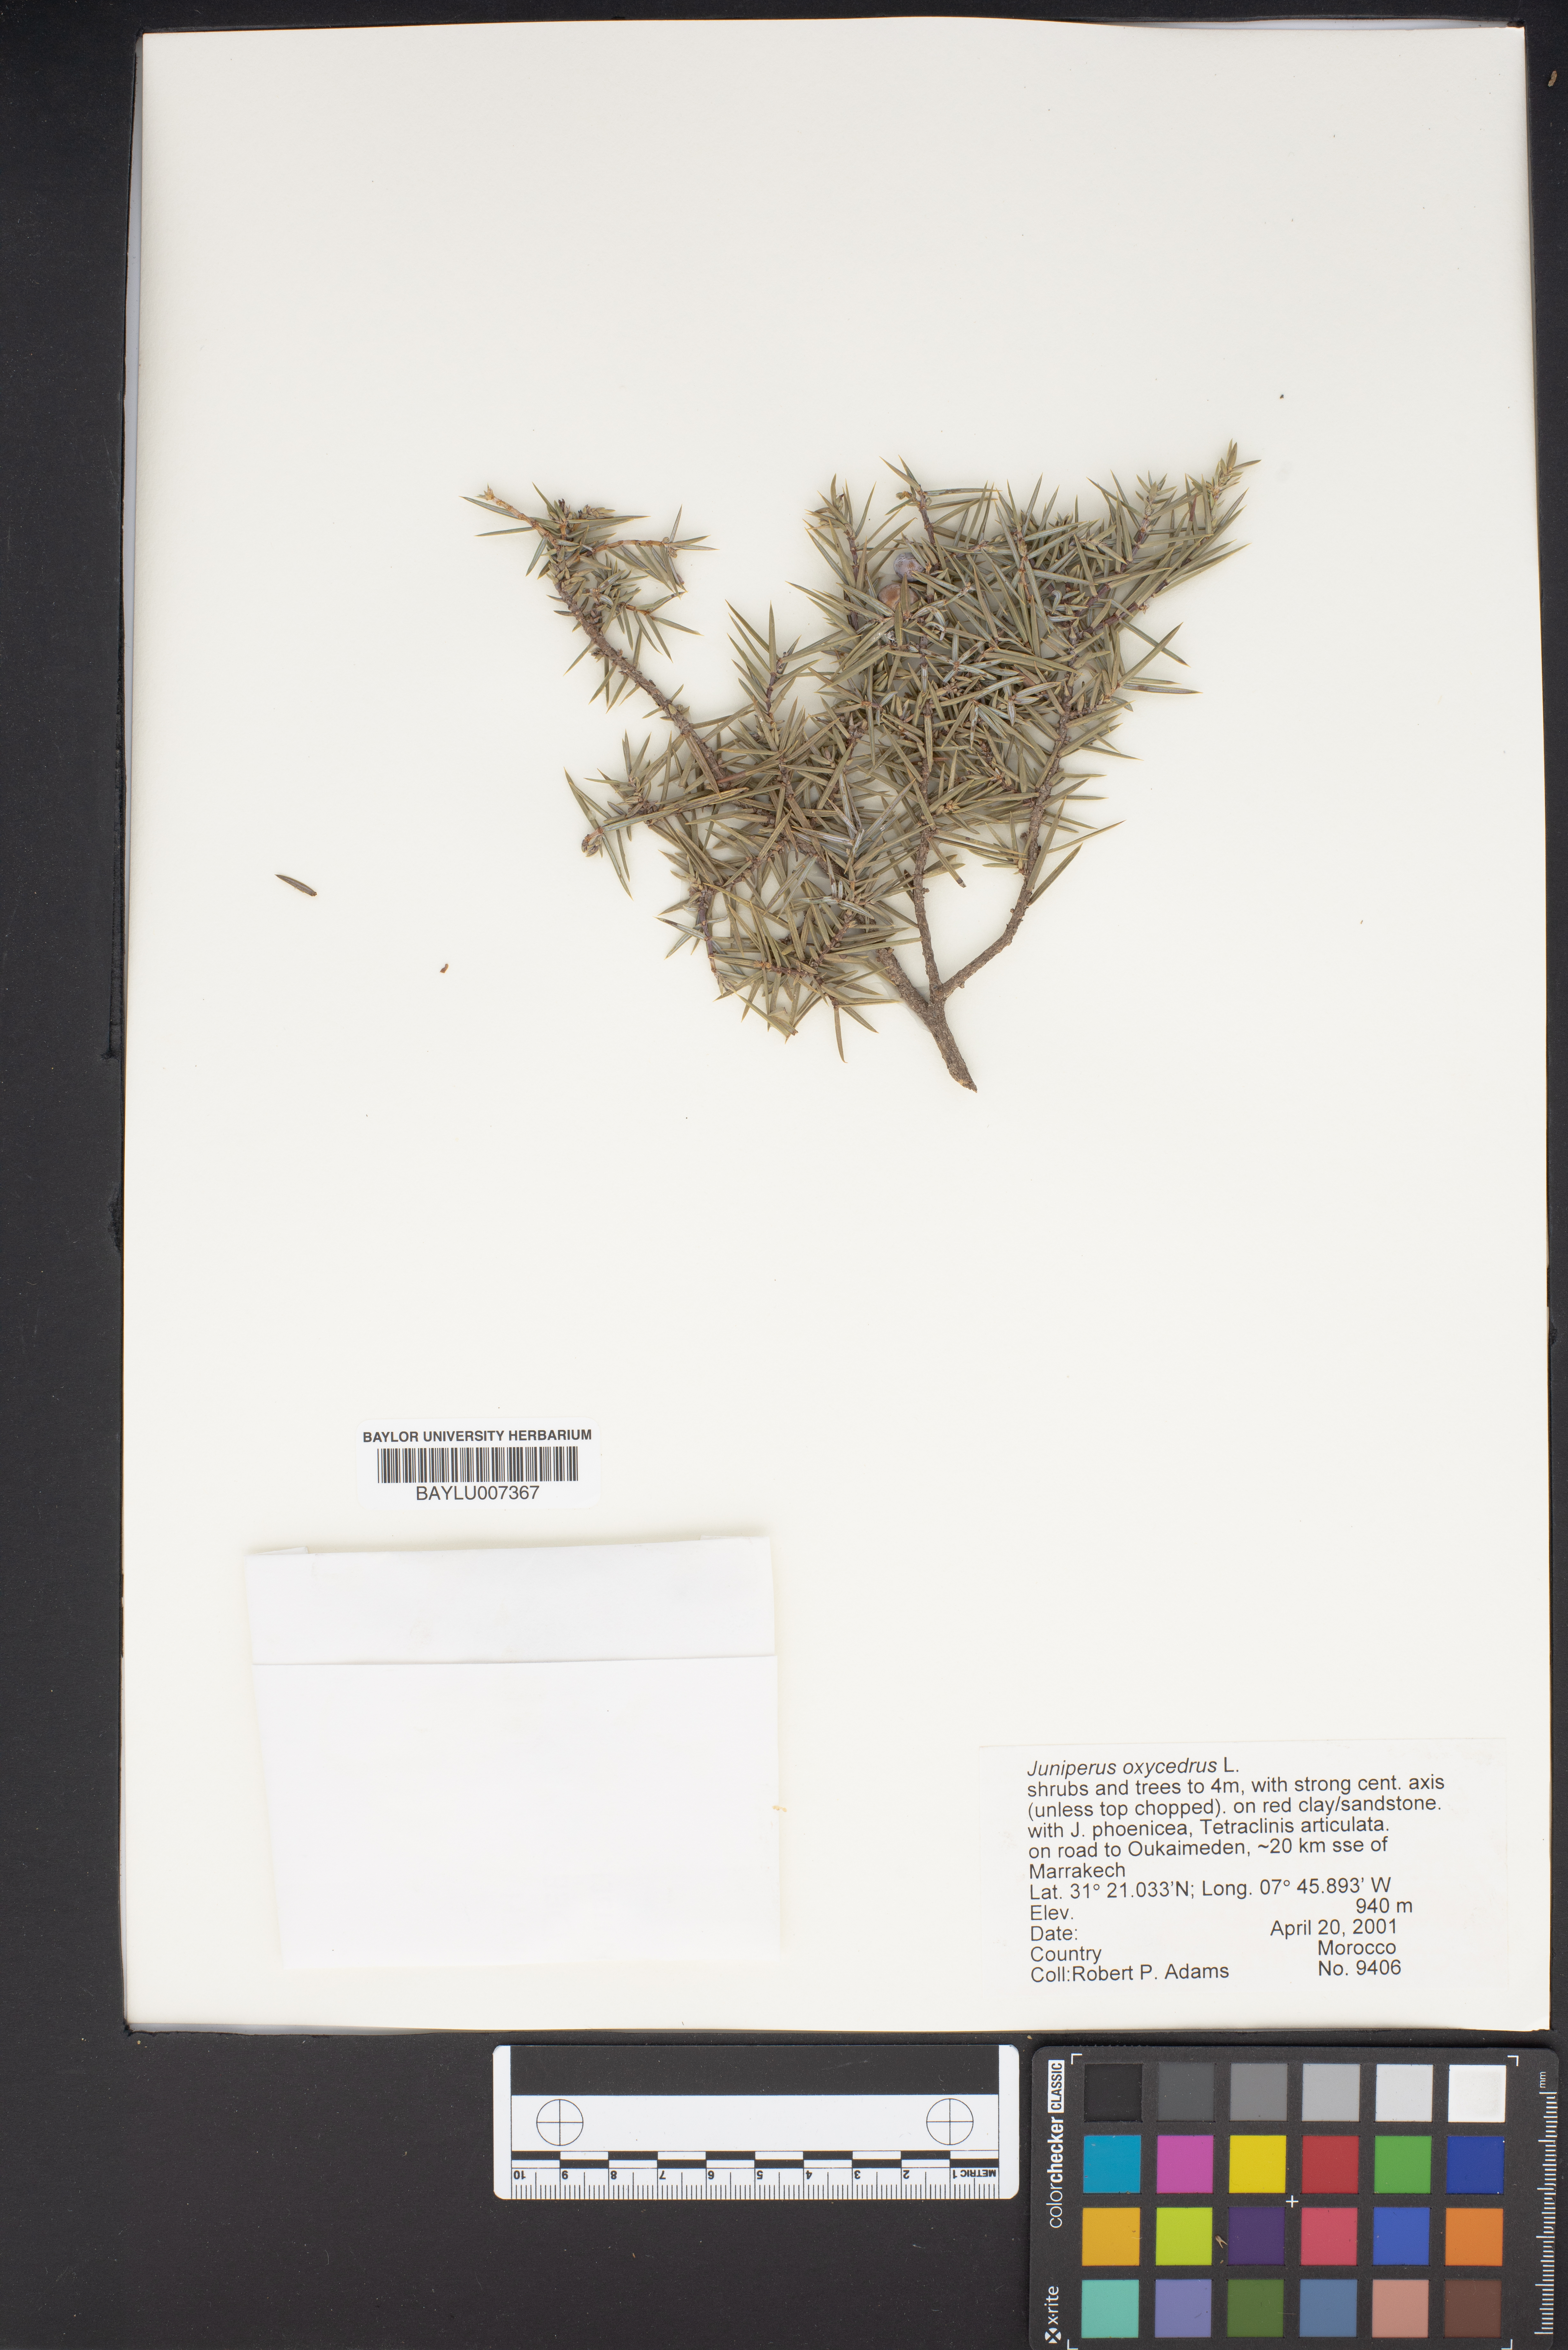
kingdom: Plantae
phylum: Tracheophyta
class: Pinopsida
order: Pinales
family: Cupressaceae
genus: Juniperus
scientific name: Juniperus oxycedrus
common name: Prickly juniper
